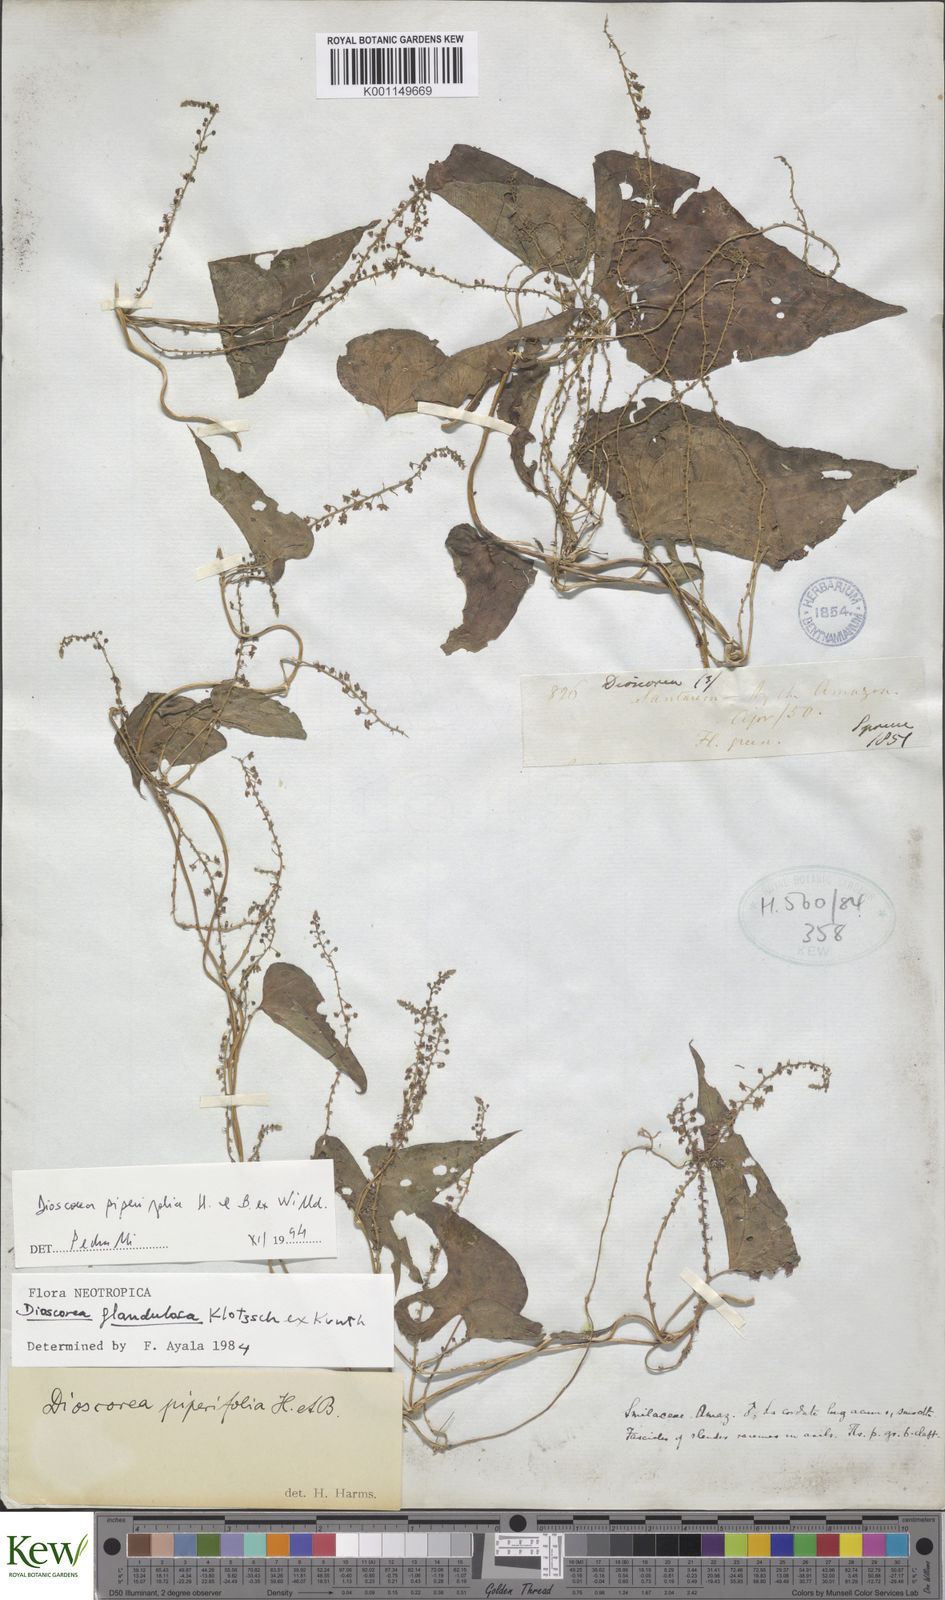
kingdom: Plantae
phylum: Tracheophyta
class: Liliopsida
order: Dioscoreales
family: Dioscoreaceae
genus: Dioscorea
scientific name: Dioscorea glandulosa
